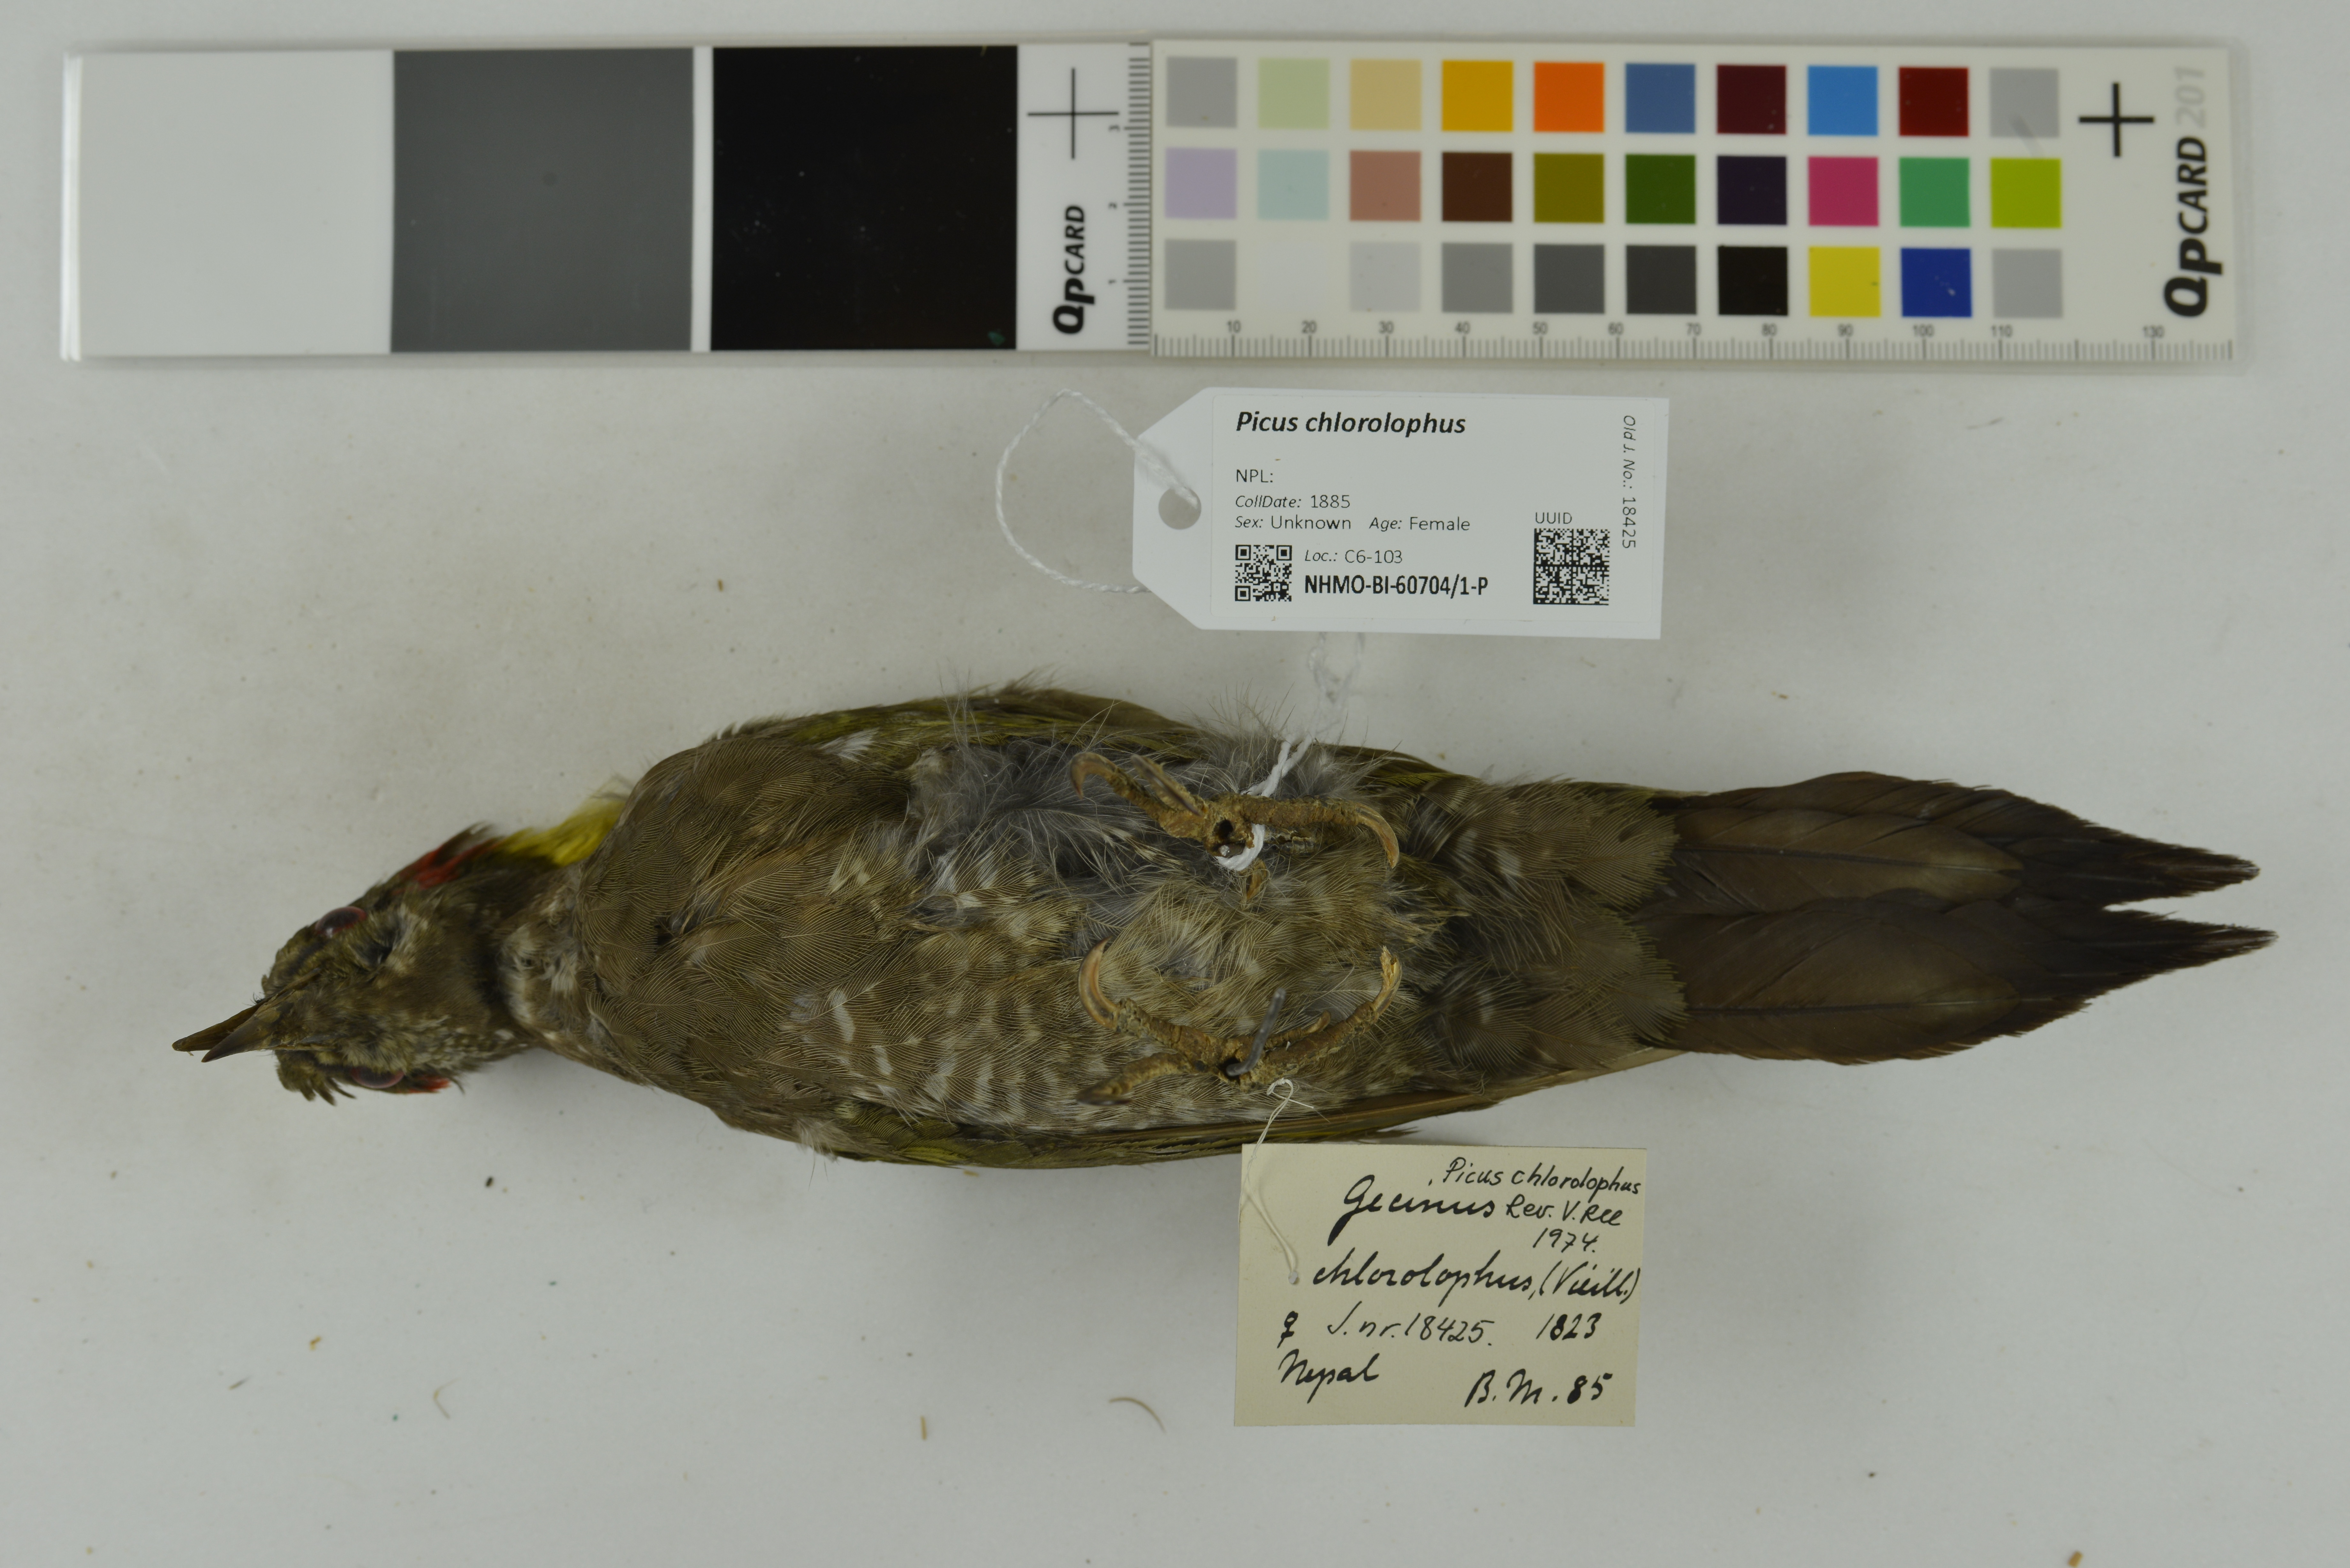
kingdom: Animalia
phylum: Chordata
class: Aves
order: Piciformes
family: Picidae
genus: Picus
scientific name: Picus chlorolophus
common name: Lesser yellownape
